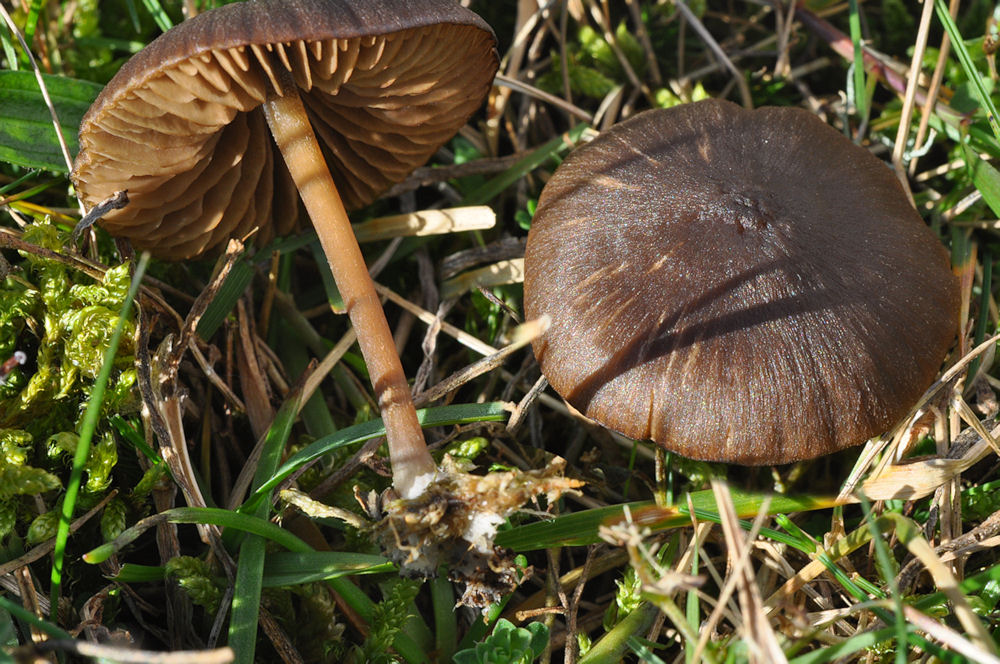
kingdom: Fungi
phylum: Basidiomycota
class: Agaricomycetes
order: Agaricales
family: Entolomataceae
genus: Entoloma
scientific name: Entoloma clandestinum
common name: tykbladet rødblad
